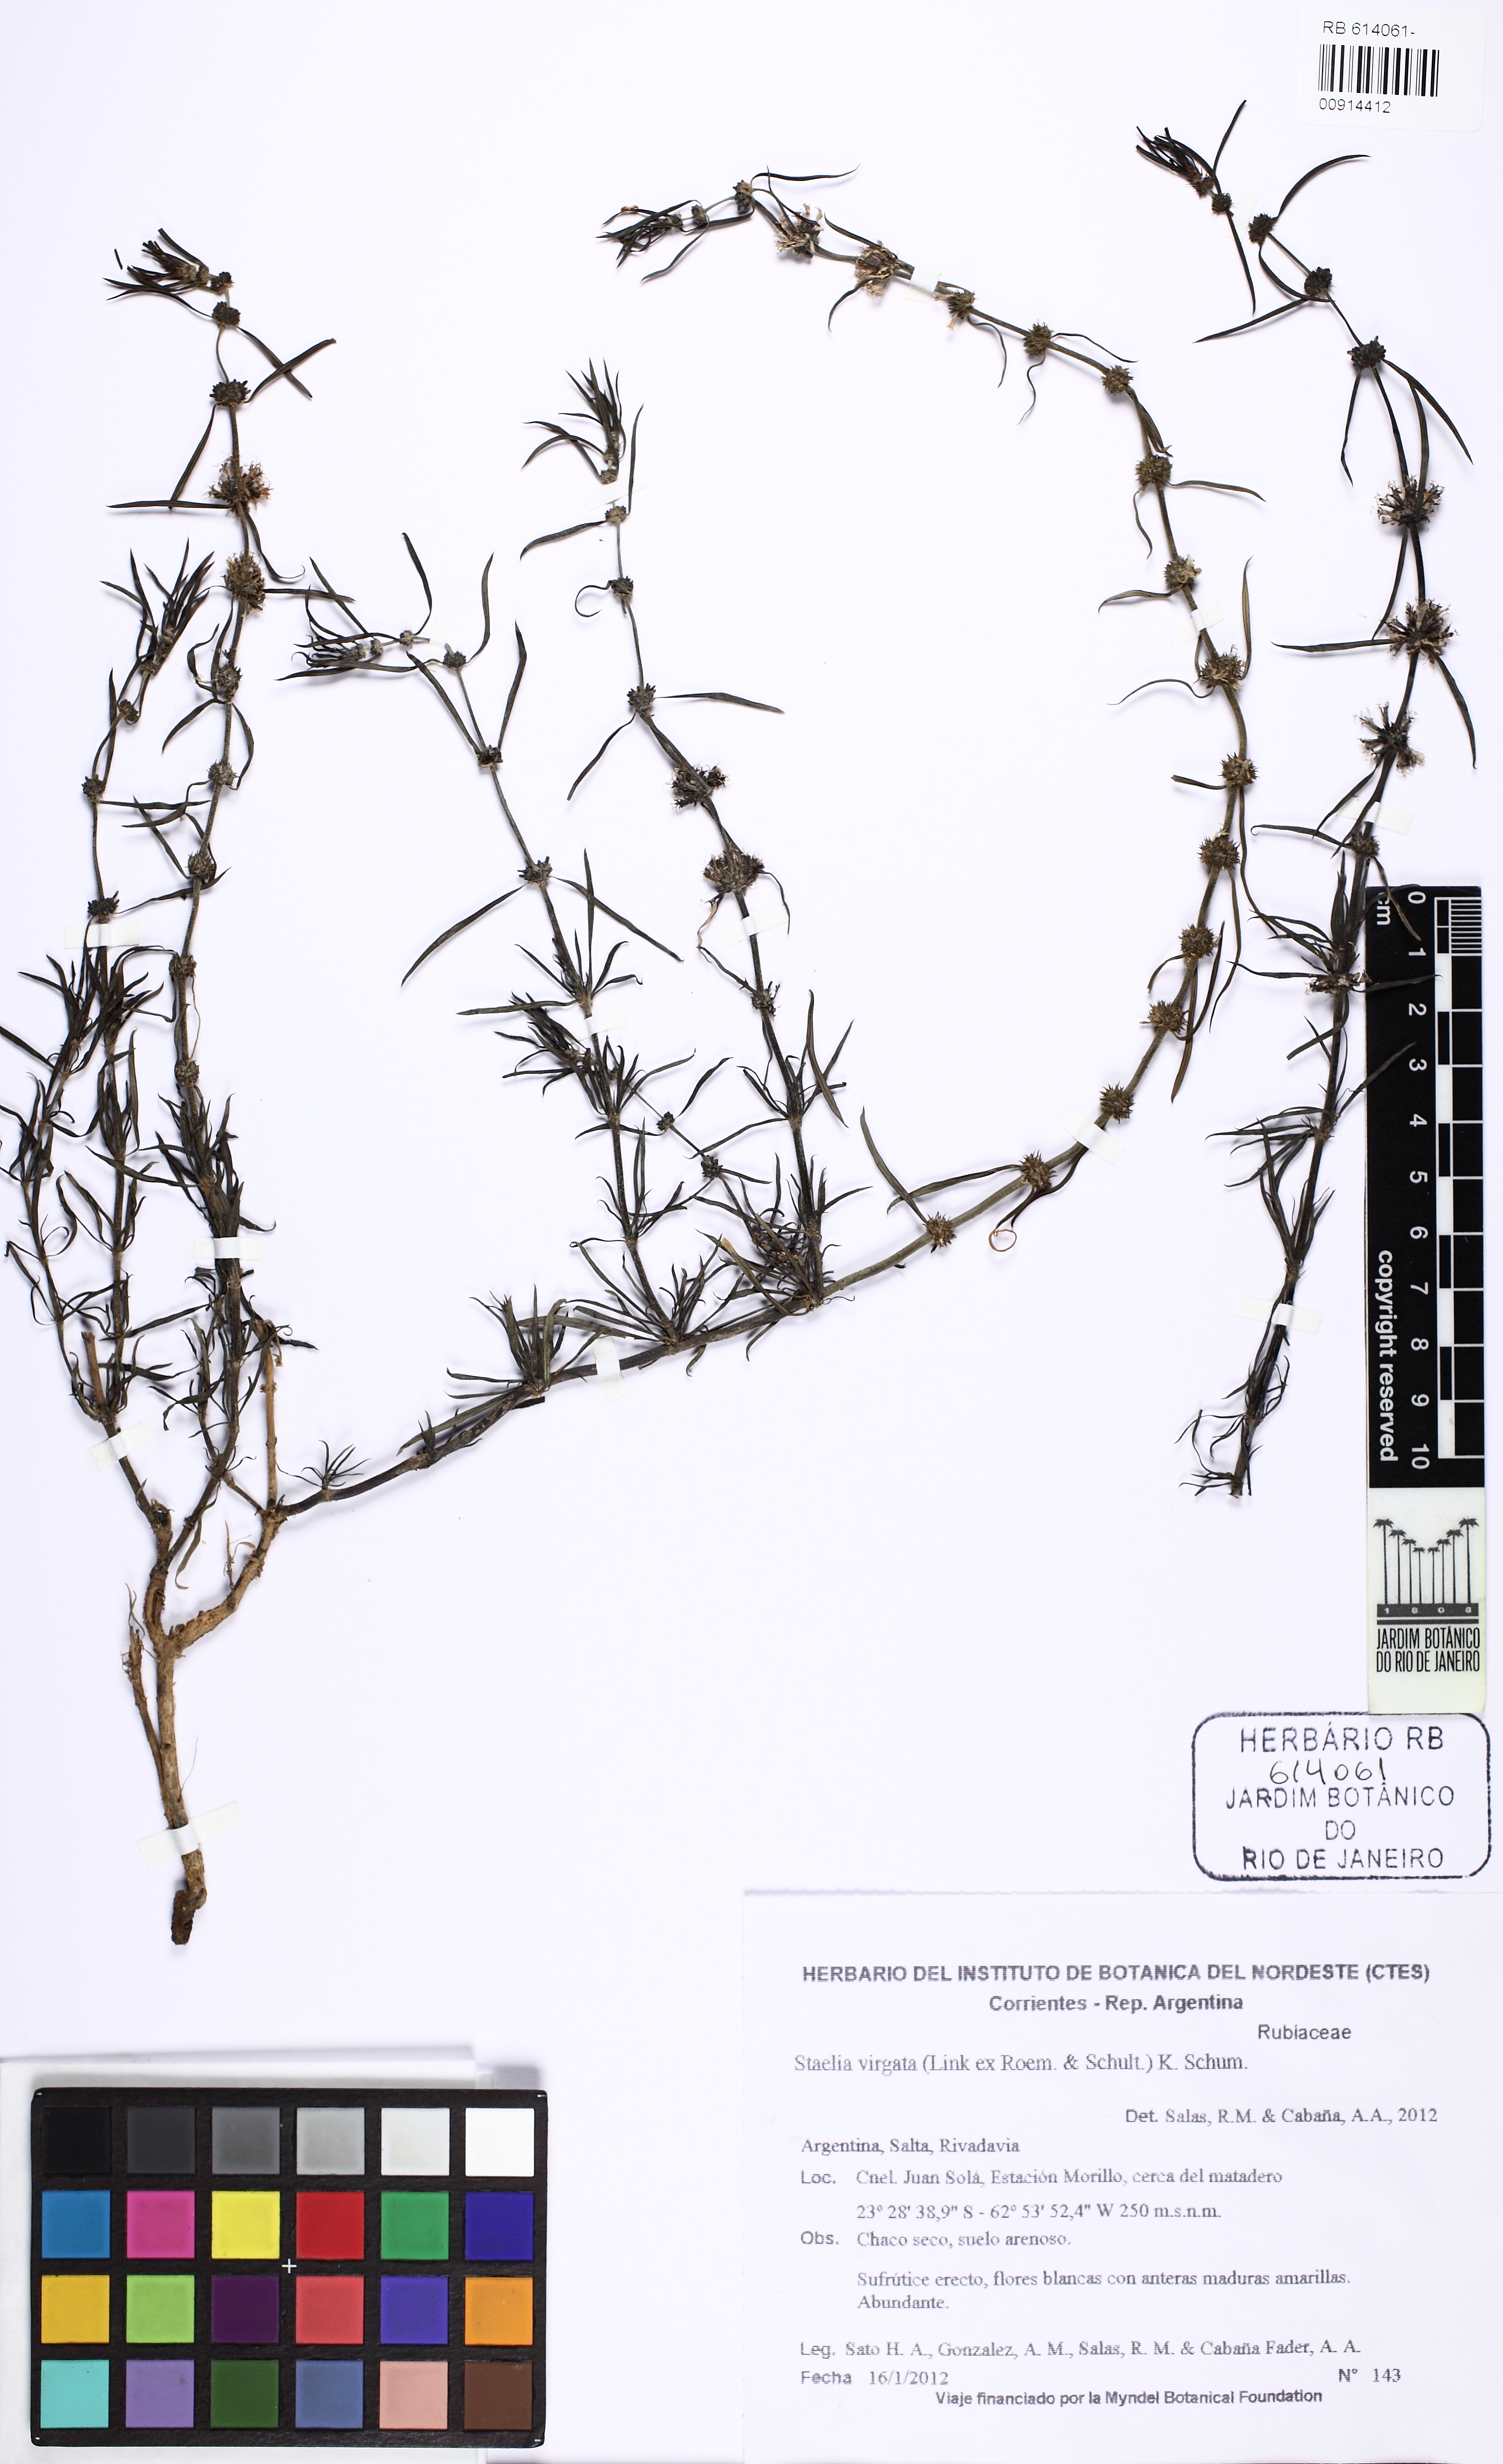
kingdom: Plantae
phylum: Tracheophyta
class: Magnoliopsida
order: Gentianales
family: Rubiaceae
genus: Staelia
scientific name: Staelia virgata
